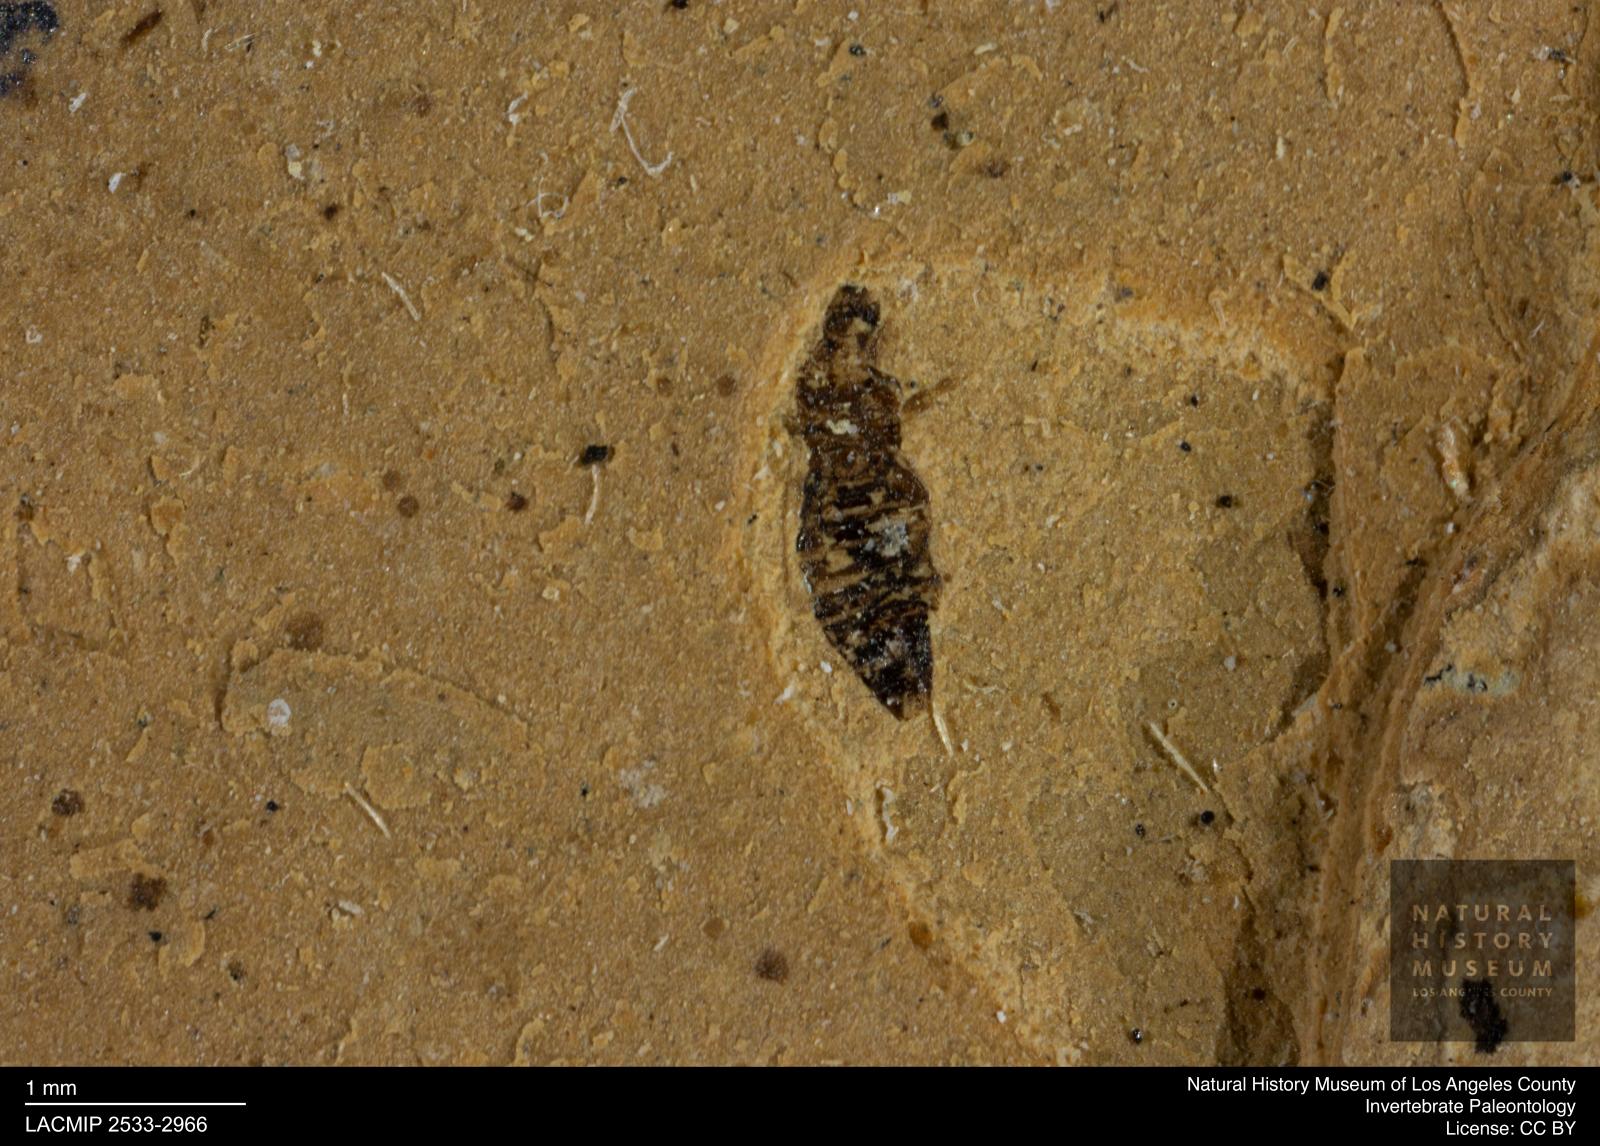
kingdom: Animalia
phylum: Arthropoda
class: Insecta
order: Thysanoptera
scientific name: Thysanoptera
